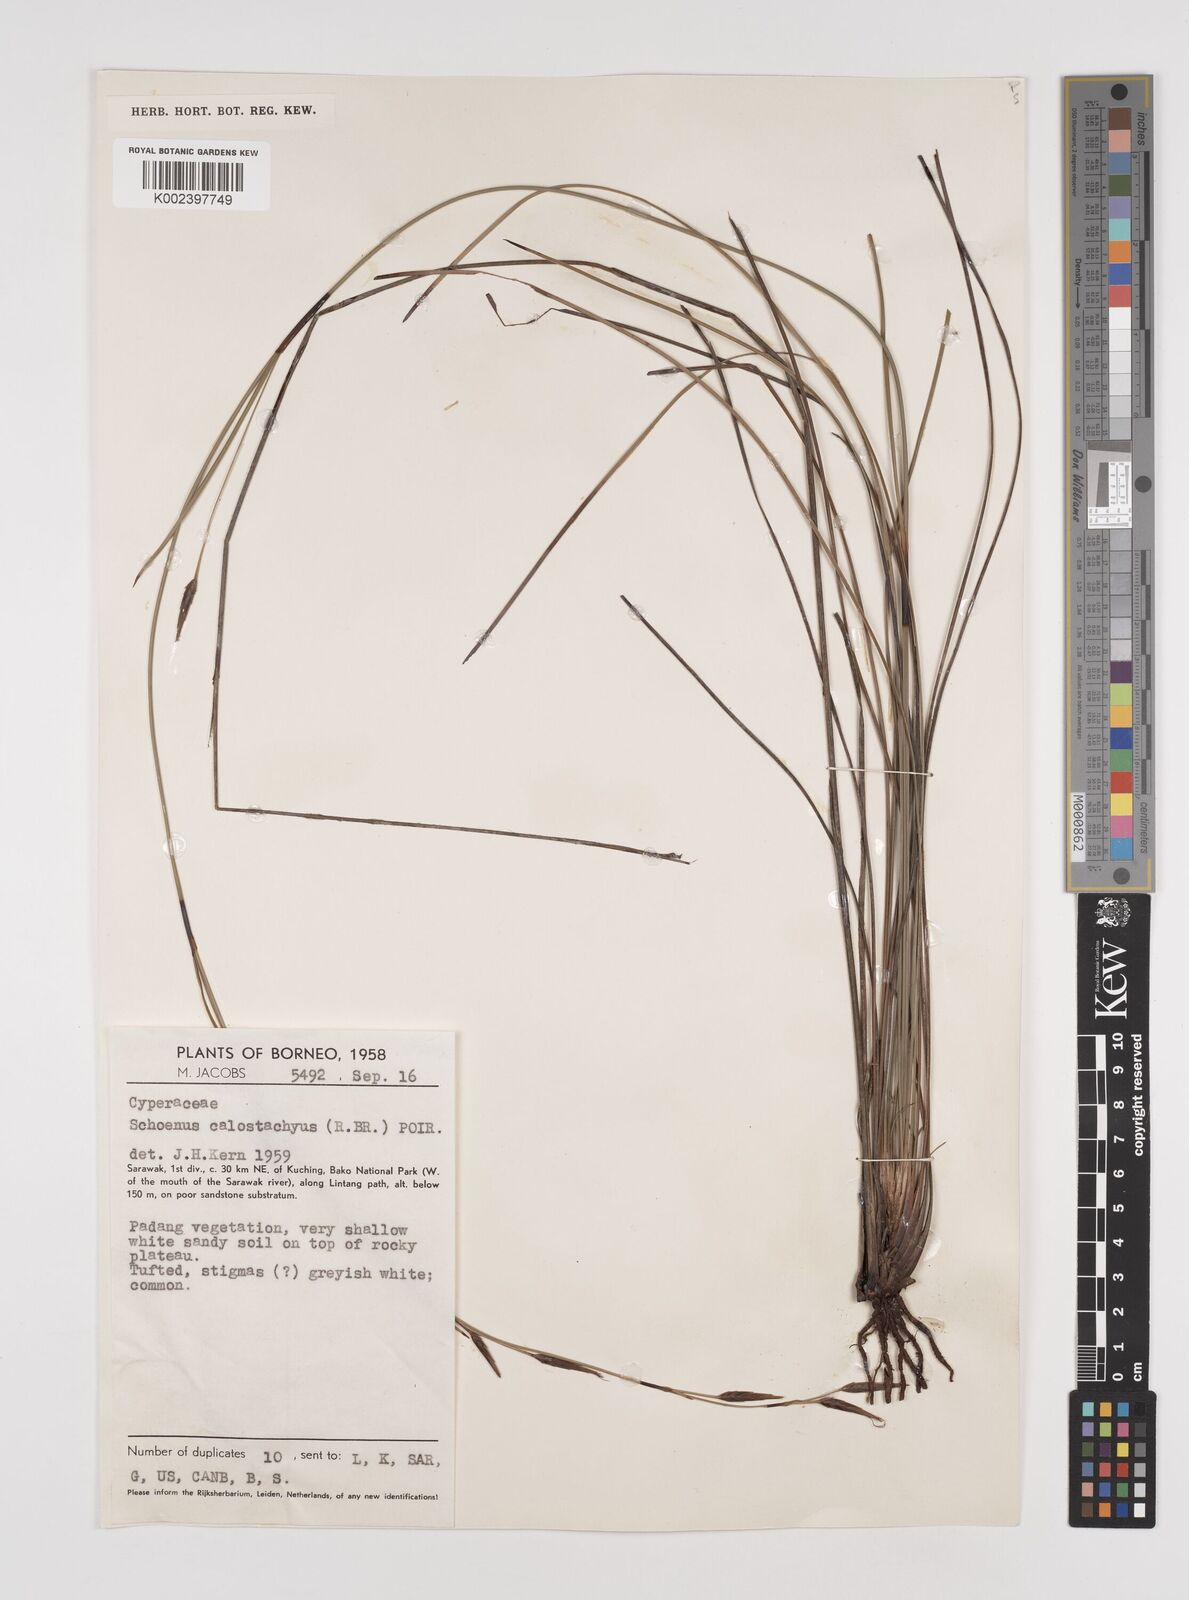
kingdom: Plantae
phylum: Tracheophyta
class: Liliopsida
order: Poales
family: Cyperaceae
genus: Schoenus
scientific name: Schoenus calostachyus
